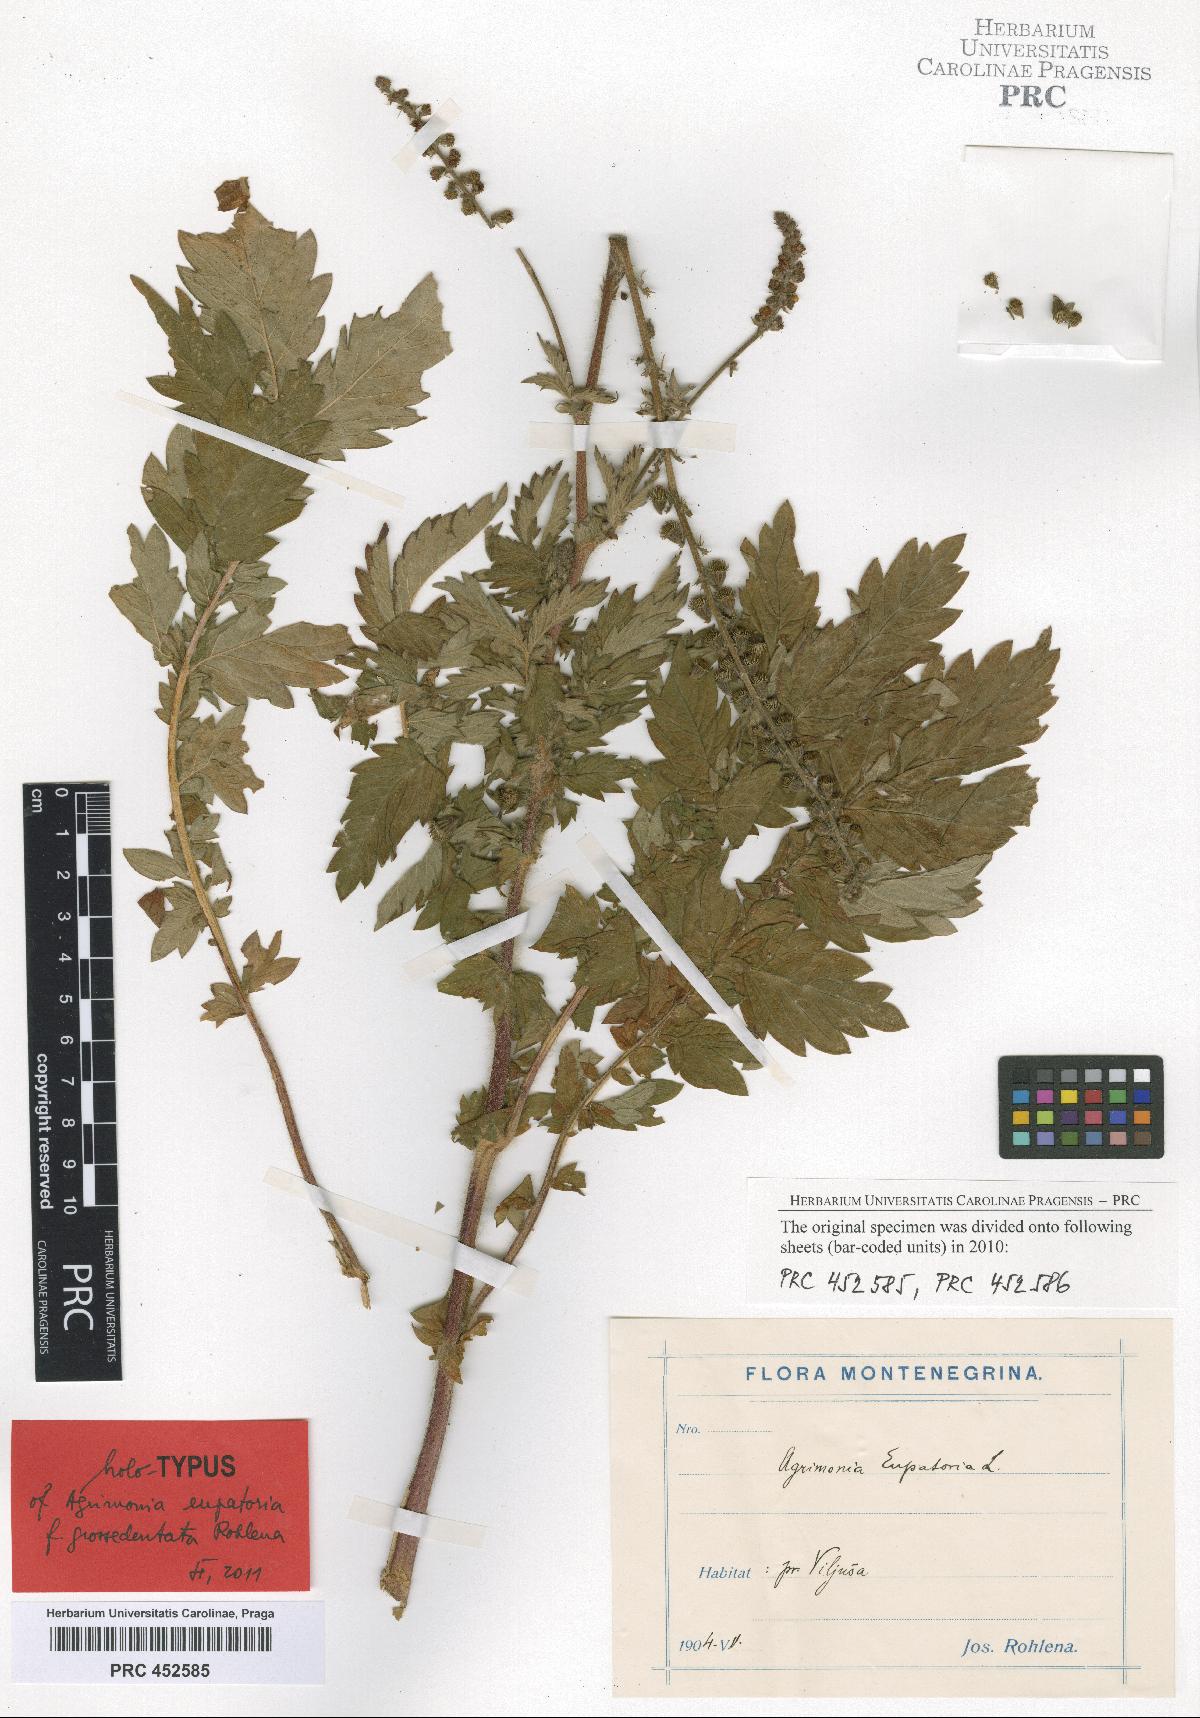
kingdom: Plantae
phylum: Tracheophyta
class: Magnoliopsida
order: Rosales
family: Rosaceae
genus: Agrimonia
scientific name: Agrimonia eupatoria
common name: Agrimony
